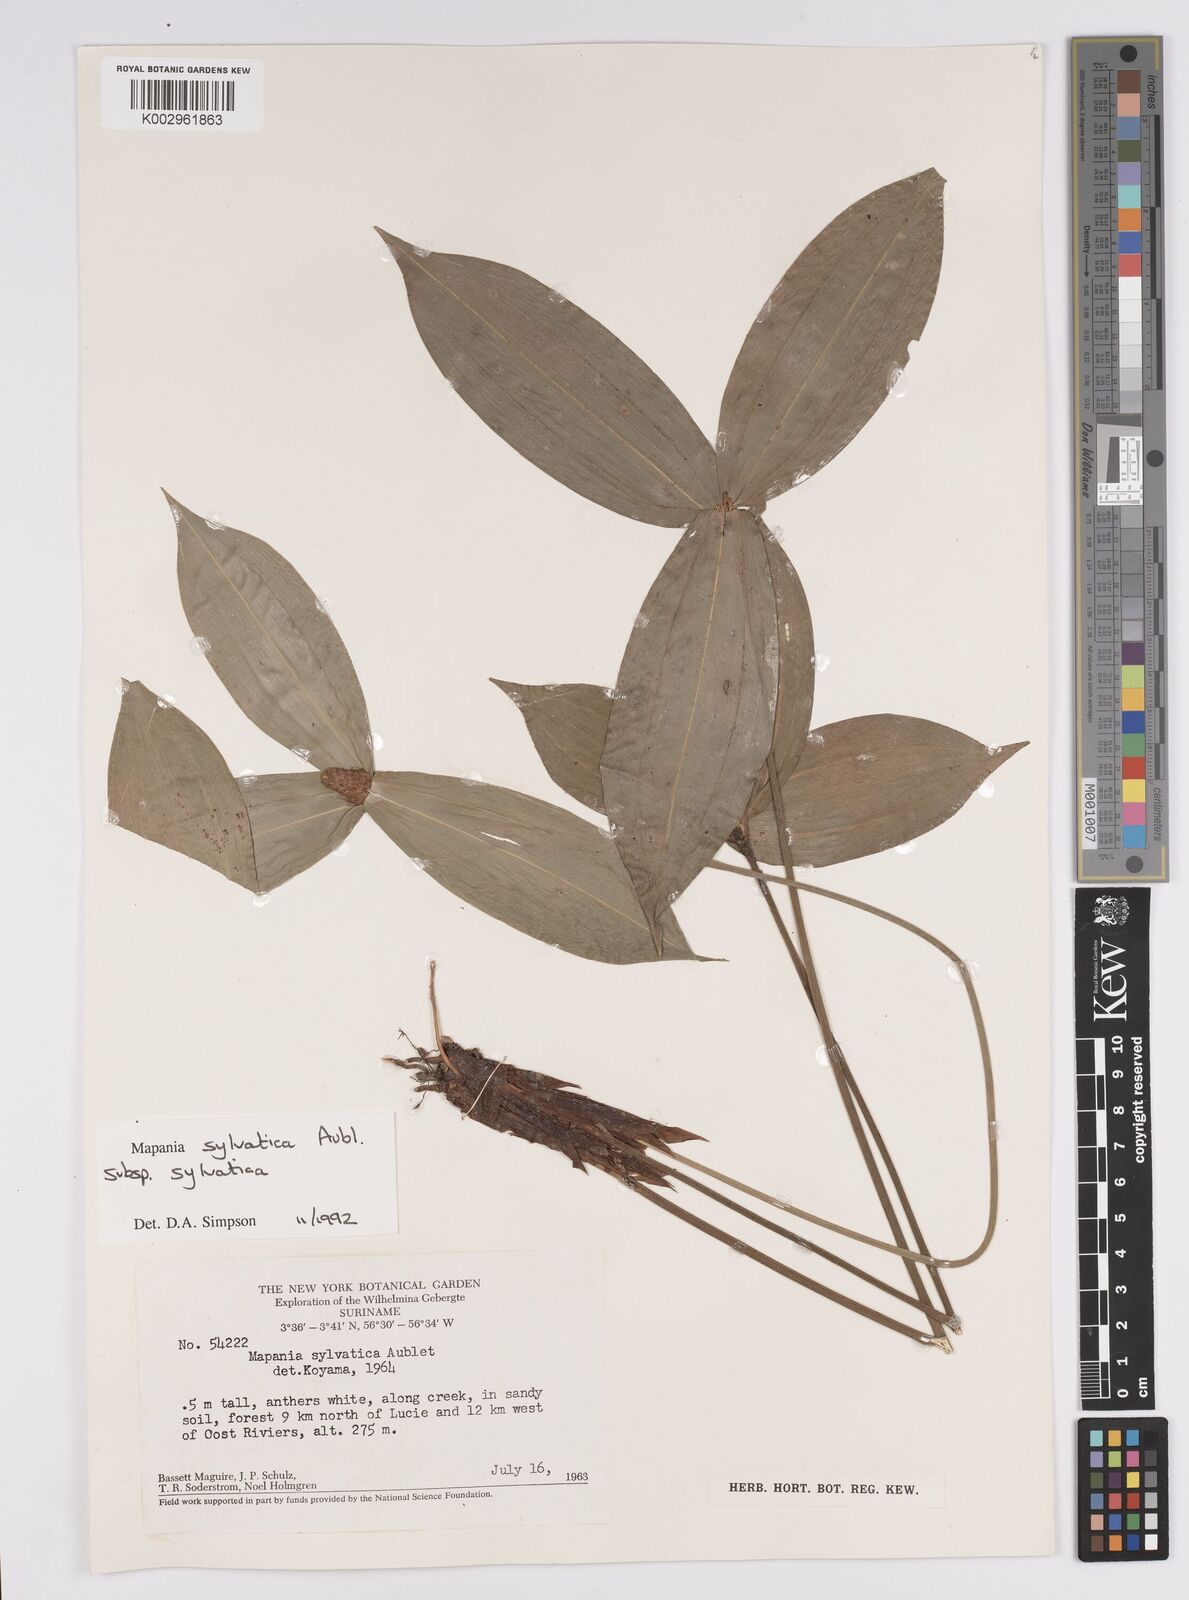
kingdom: Plantae
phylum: Tracheophyta
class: Liliopsida
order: Poales
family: Cyperaceae
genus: Mapania
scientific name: Mapania sylvatica
